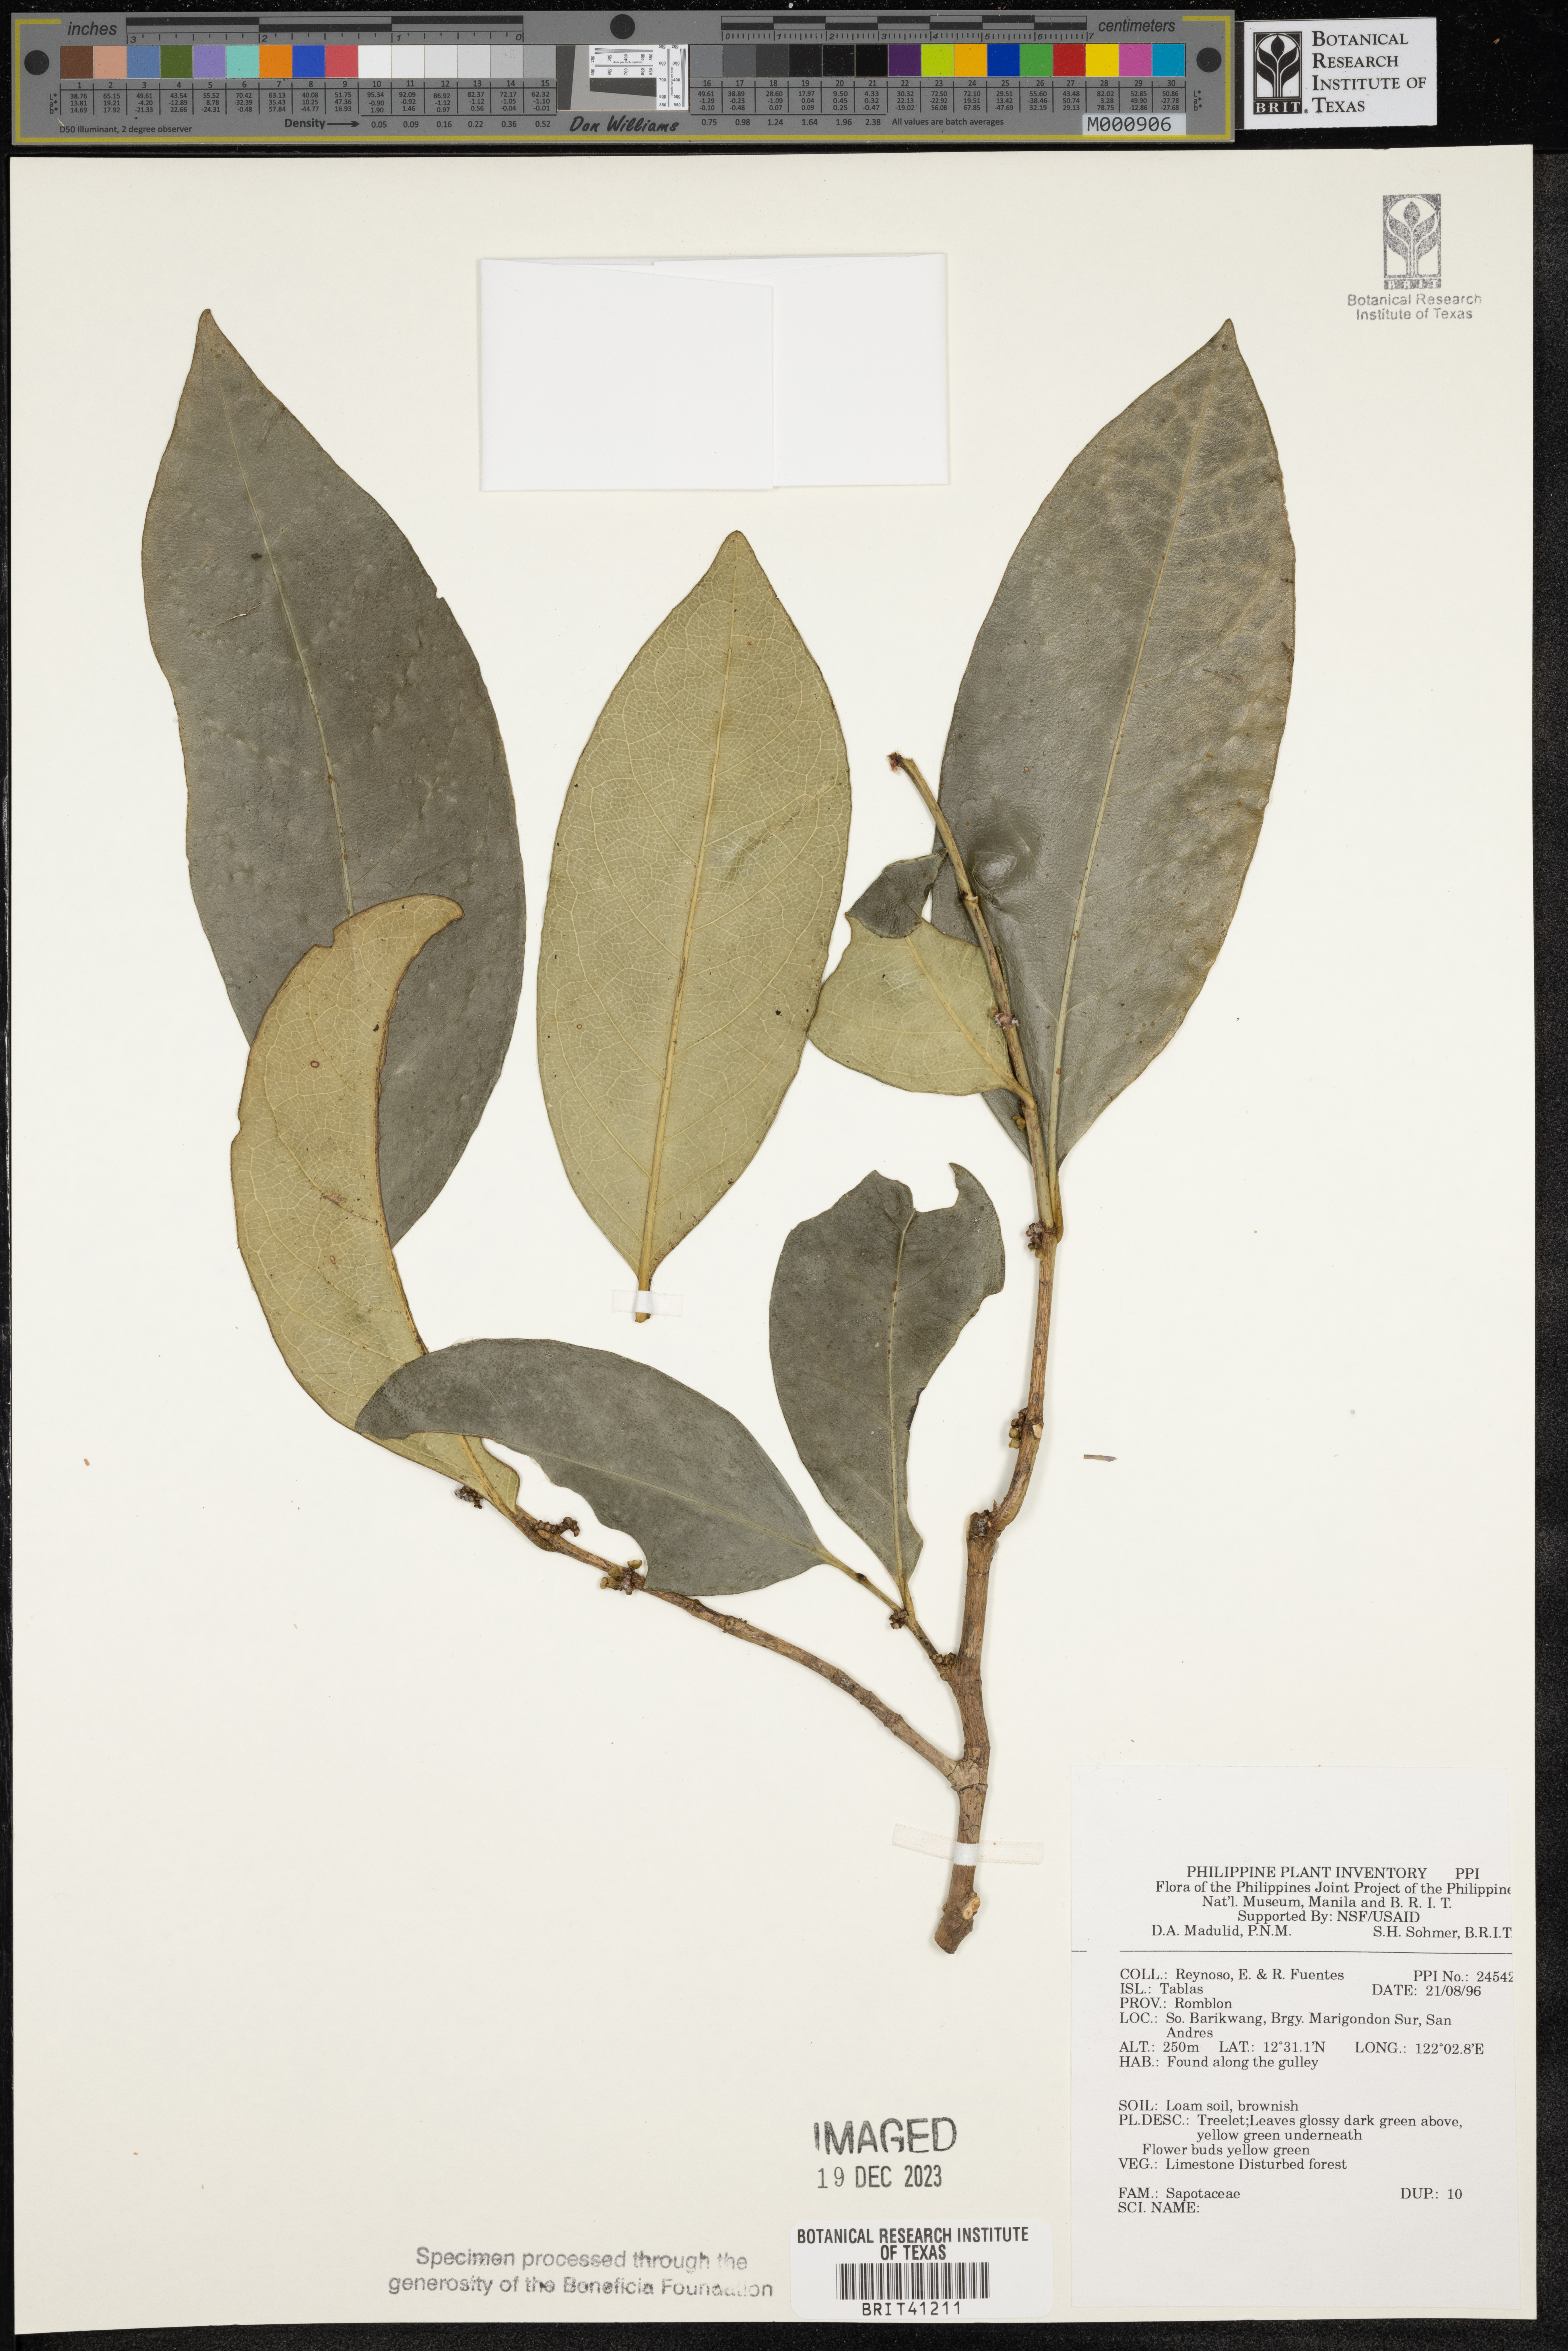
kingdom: Plantae
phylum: Tracheophyta
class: Magnoliopsida
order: Ericales
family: Sapotaceae
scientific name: Sapotaceae
